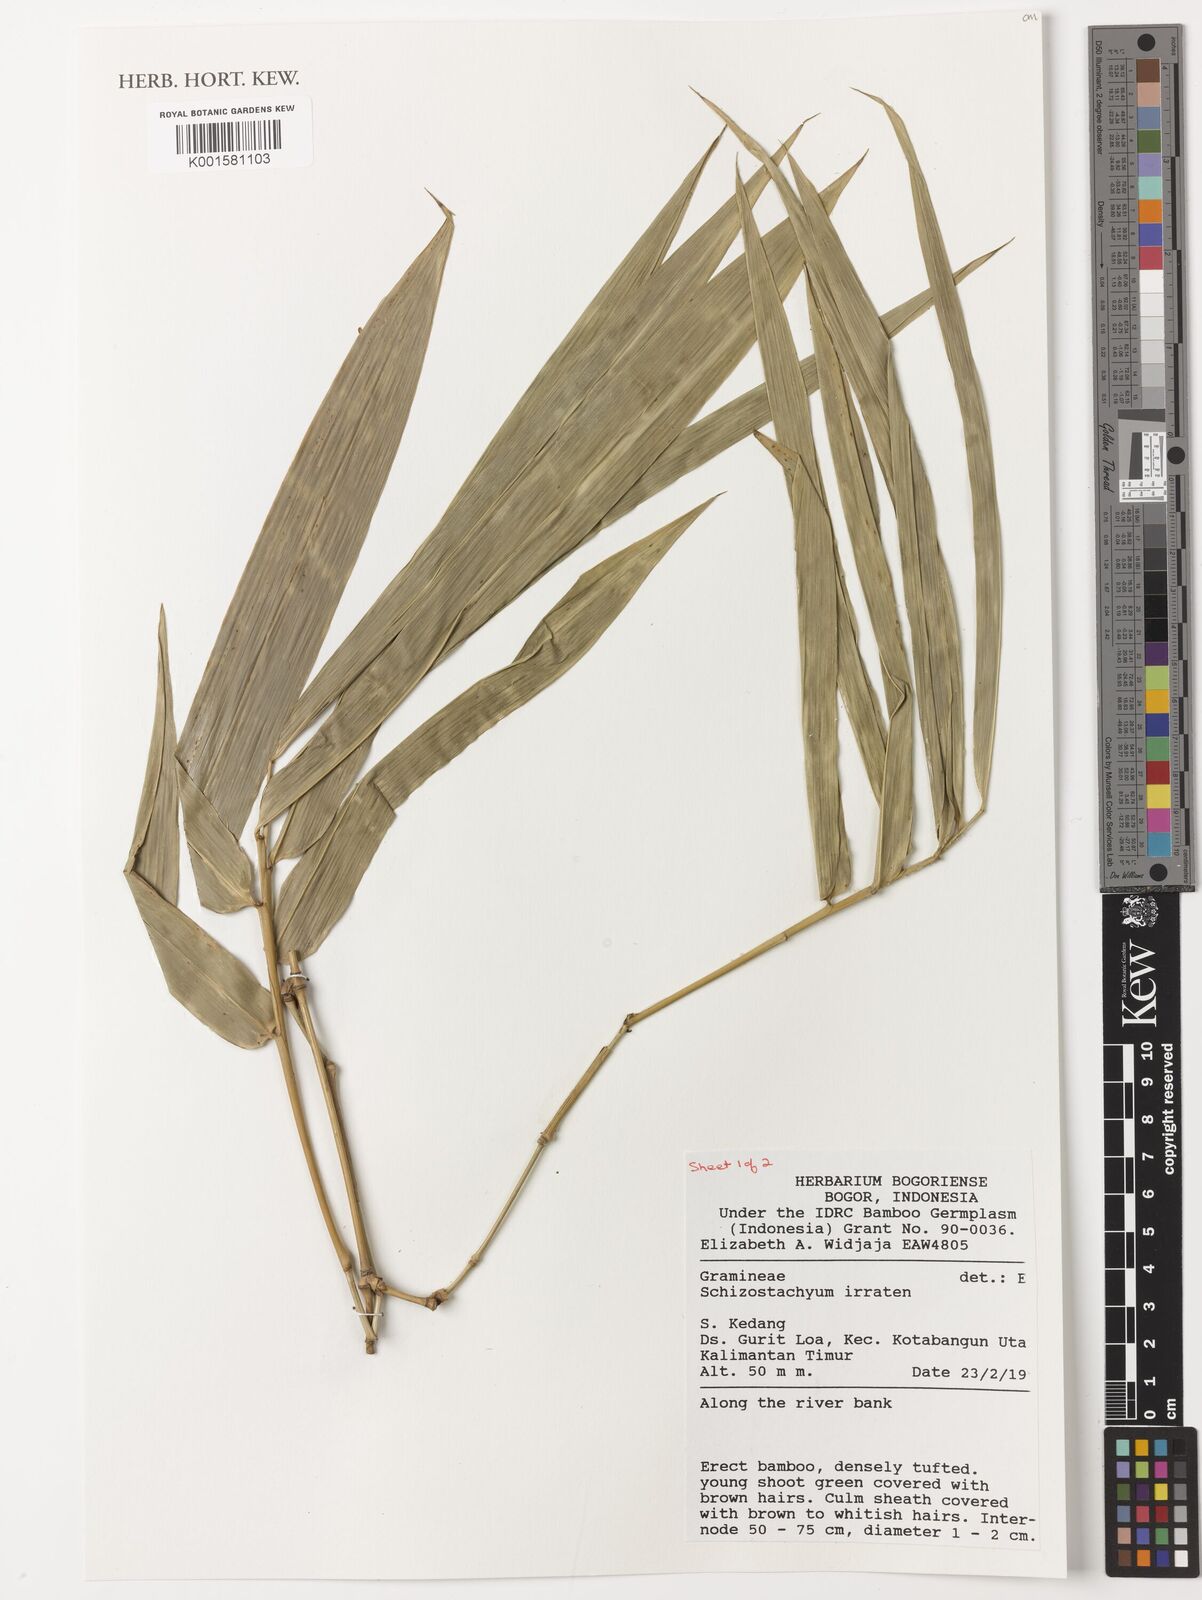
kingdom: Plantae
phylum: Tracheophyta
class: Liliopsida
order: Poales
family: Poaceae
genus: Schizostachyum
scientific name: Schizostachyum iraten
